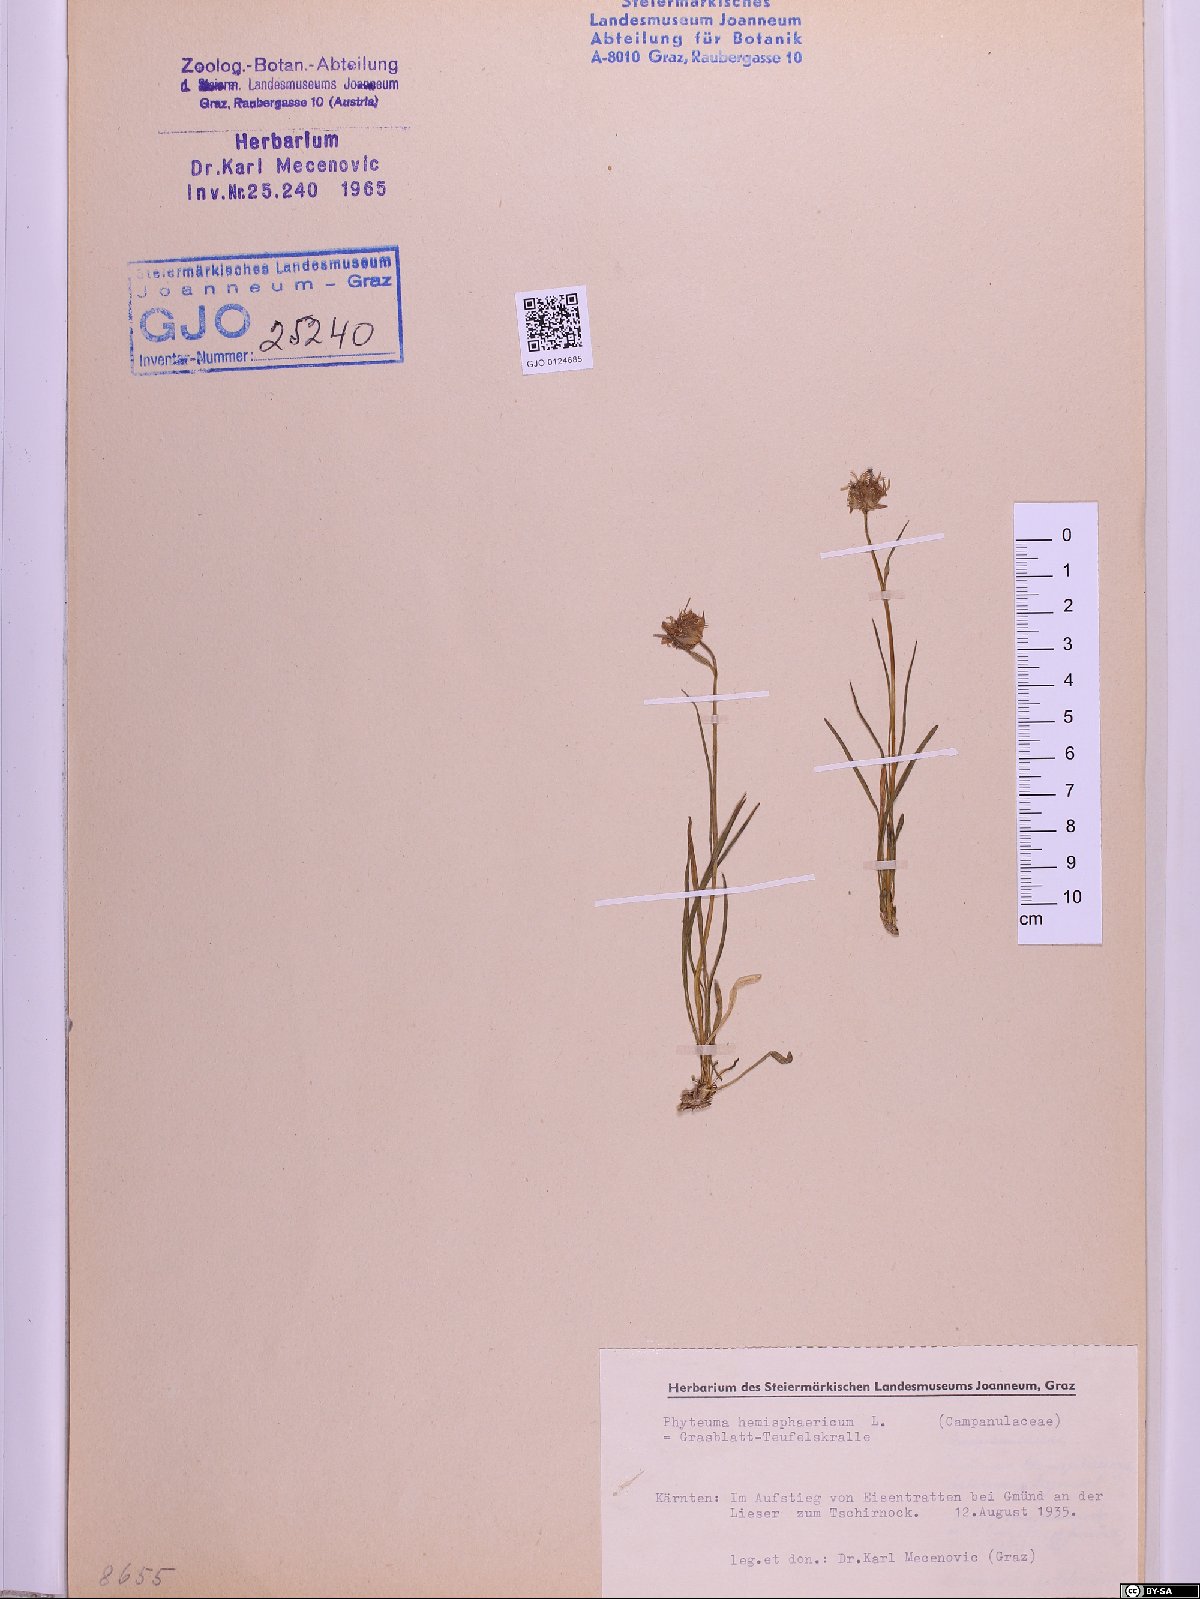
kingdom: Plantae
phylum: Tracheophyta
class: Magnoliopsida
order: Asterales
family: Campanulaceae
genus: Phyteuma
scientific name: Phyteuma hemisphaericum
